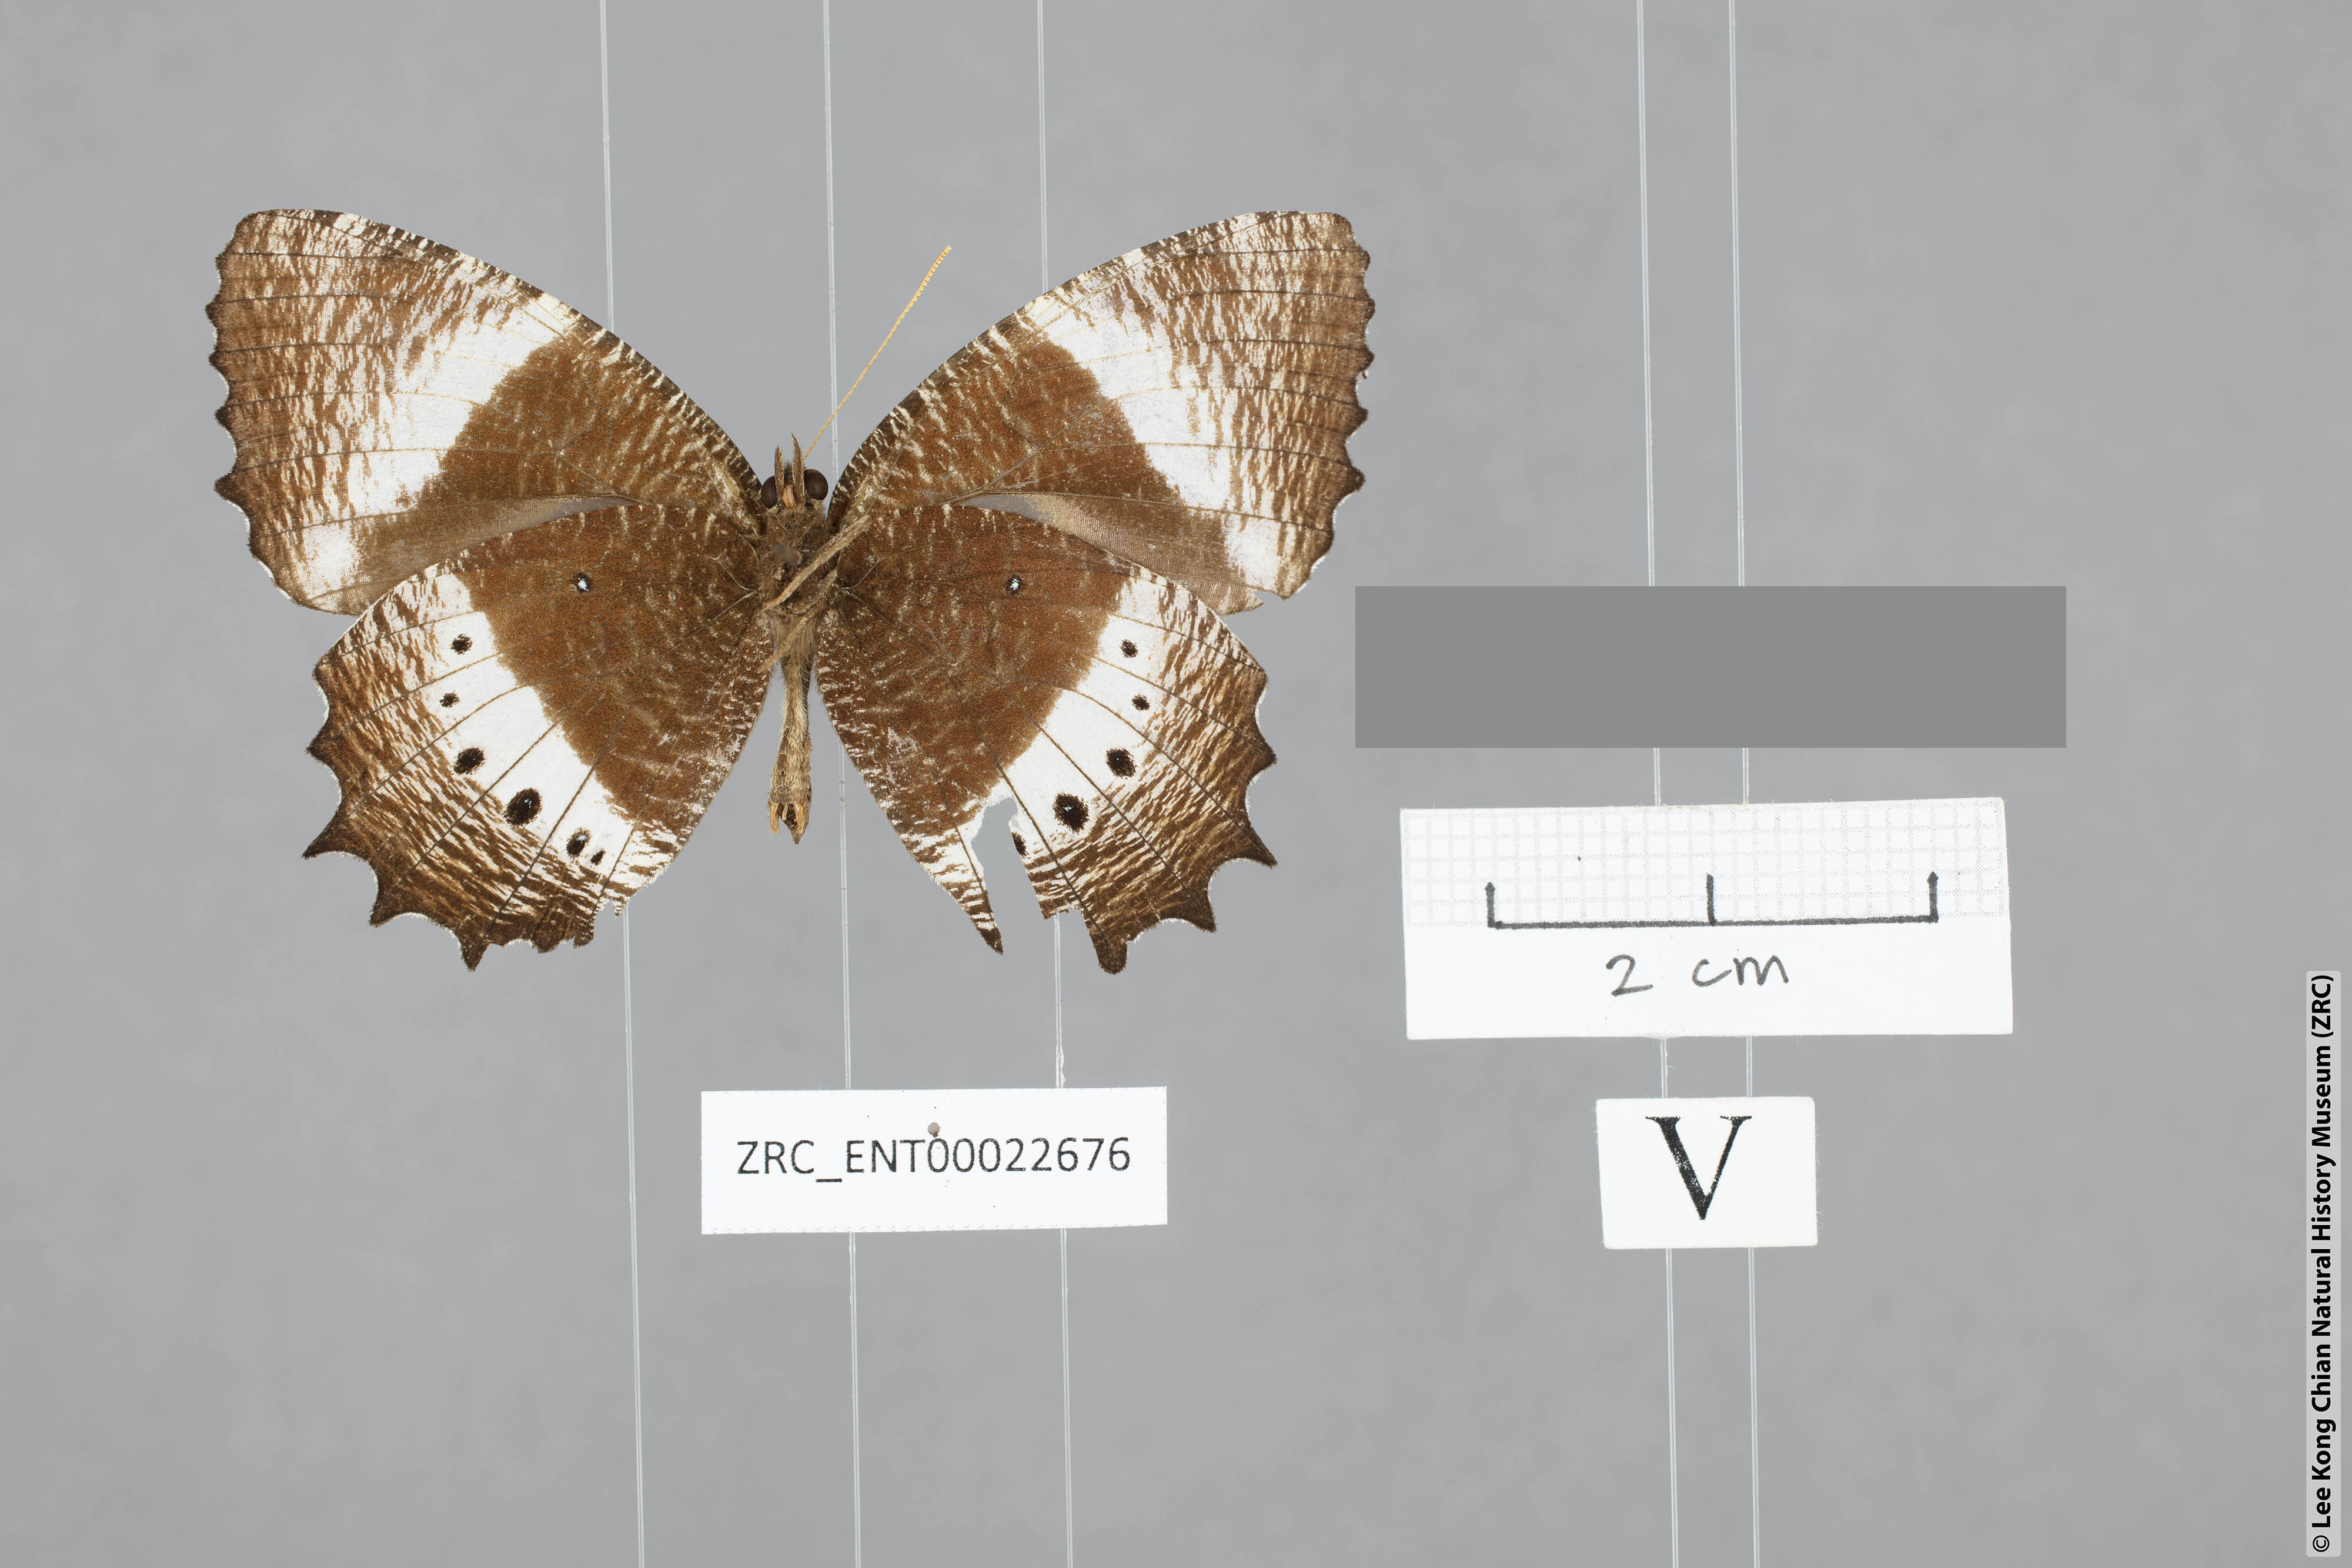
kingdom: Animalia
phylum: Arthropoda
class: Insecta
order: Lepidoptera
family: Nymphalidae
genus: Elymnias
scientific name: Elymnias dara
